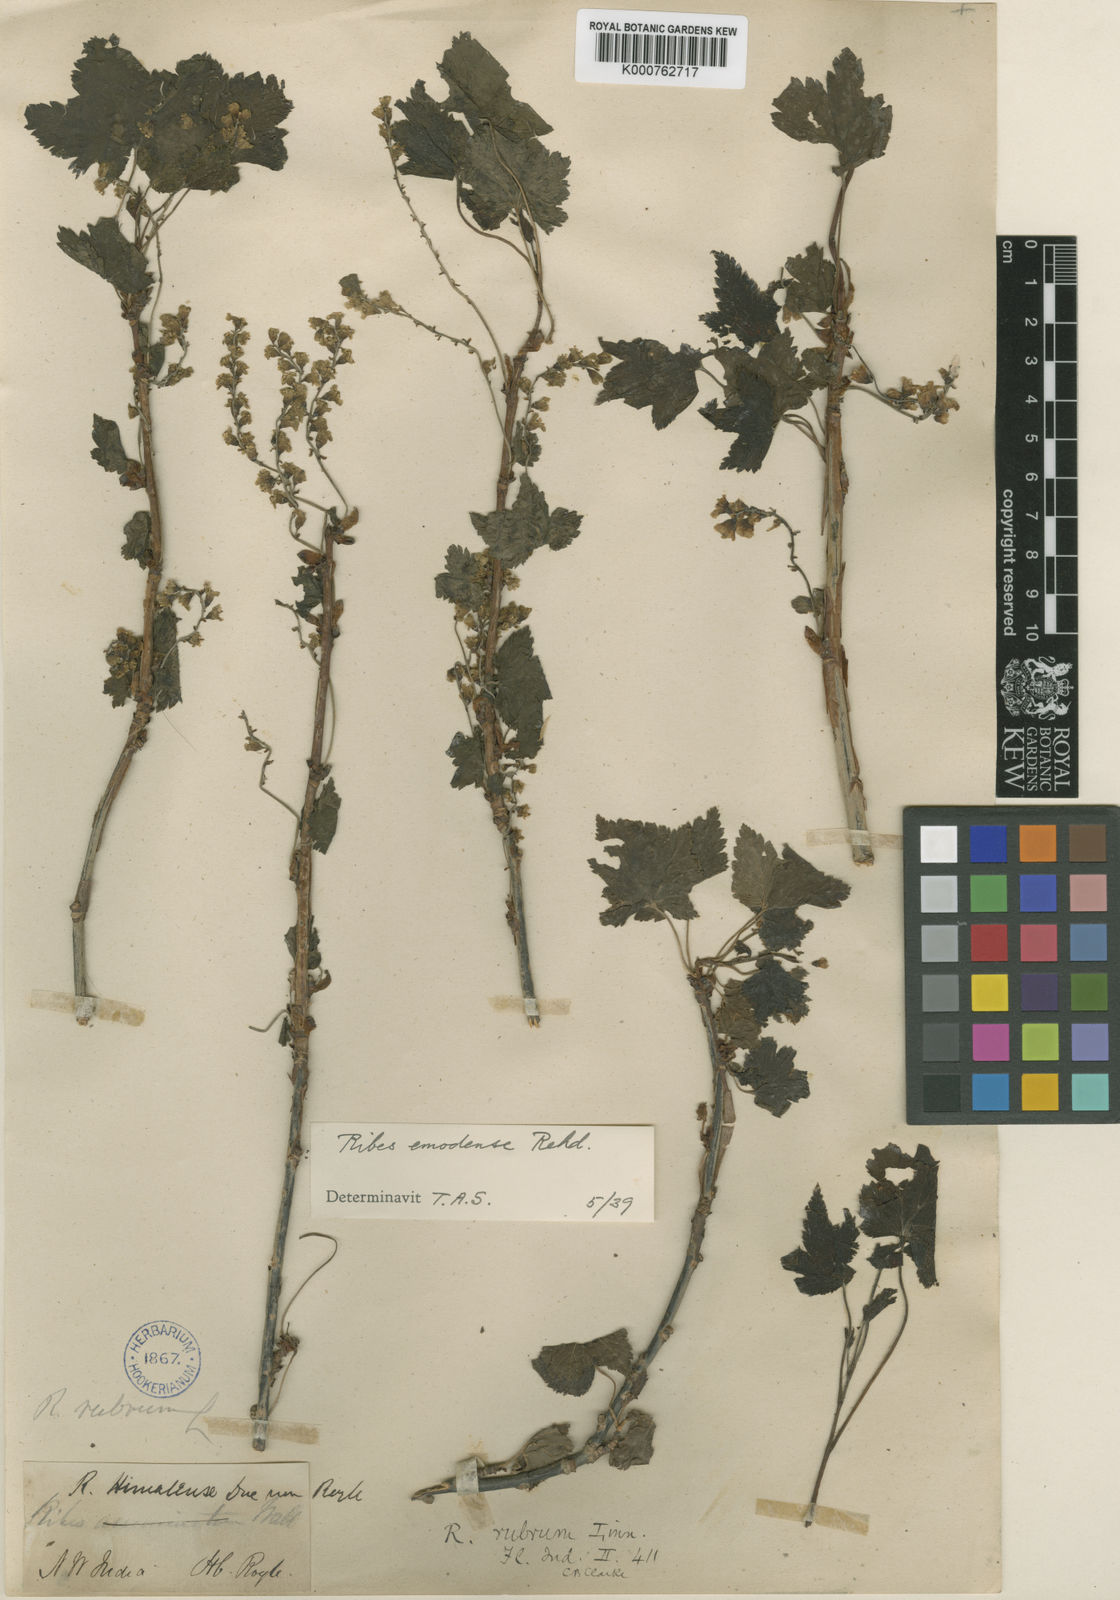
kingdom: Plantae
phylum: Tracheophyta
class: Magnoliopsida
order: Saxifragales
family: Grossulariaceae
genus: Ribes
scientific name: Ribes himalense
